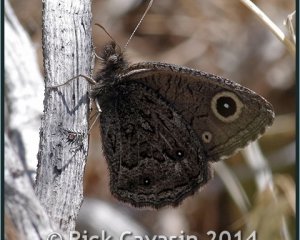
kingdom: Animalia
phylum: Arthropoda
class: Insecta
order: Lepidoptera
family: Nymphalidae
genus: Cercyonis
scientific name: Cercyonis oetus
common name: Small Wood-Nymph
